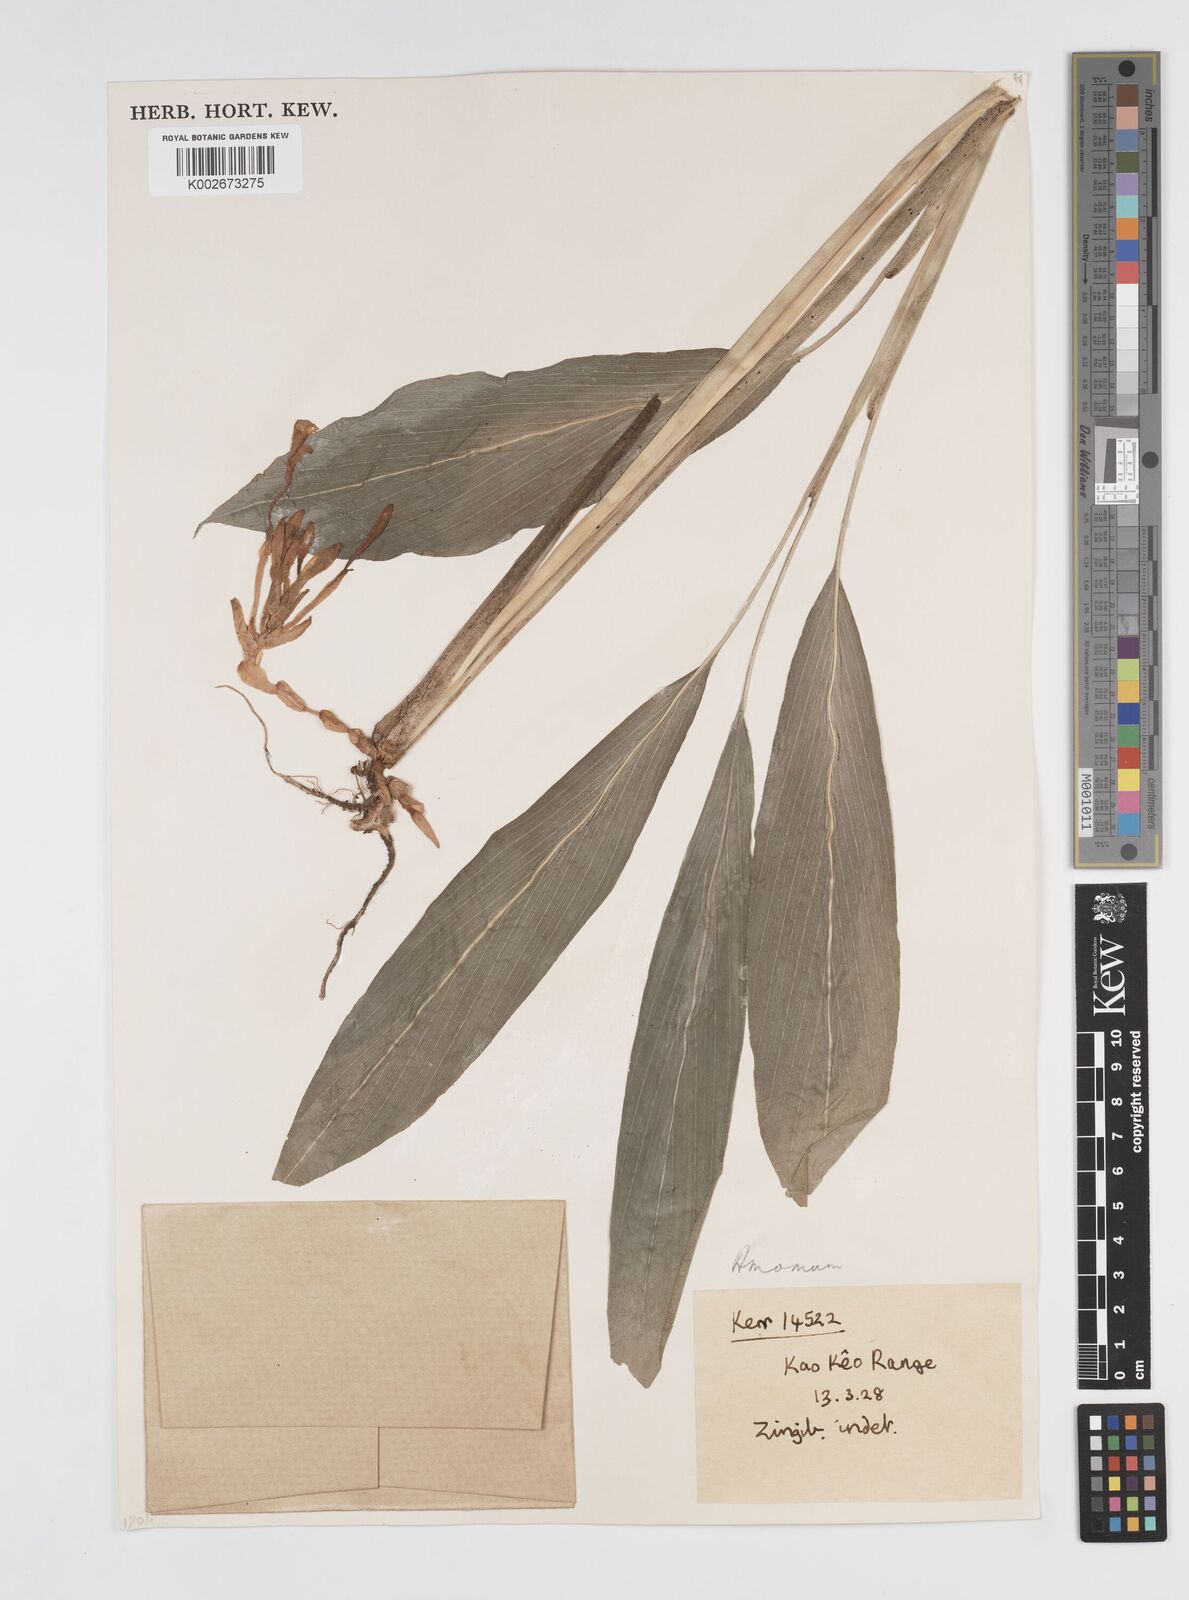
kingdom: Plantae
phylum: Tracheophyta
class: Liliopsida
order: Zingiberales
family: Zingiberaceae
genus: Amomum
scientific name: Amomum
